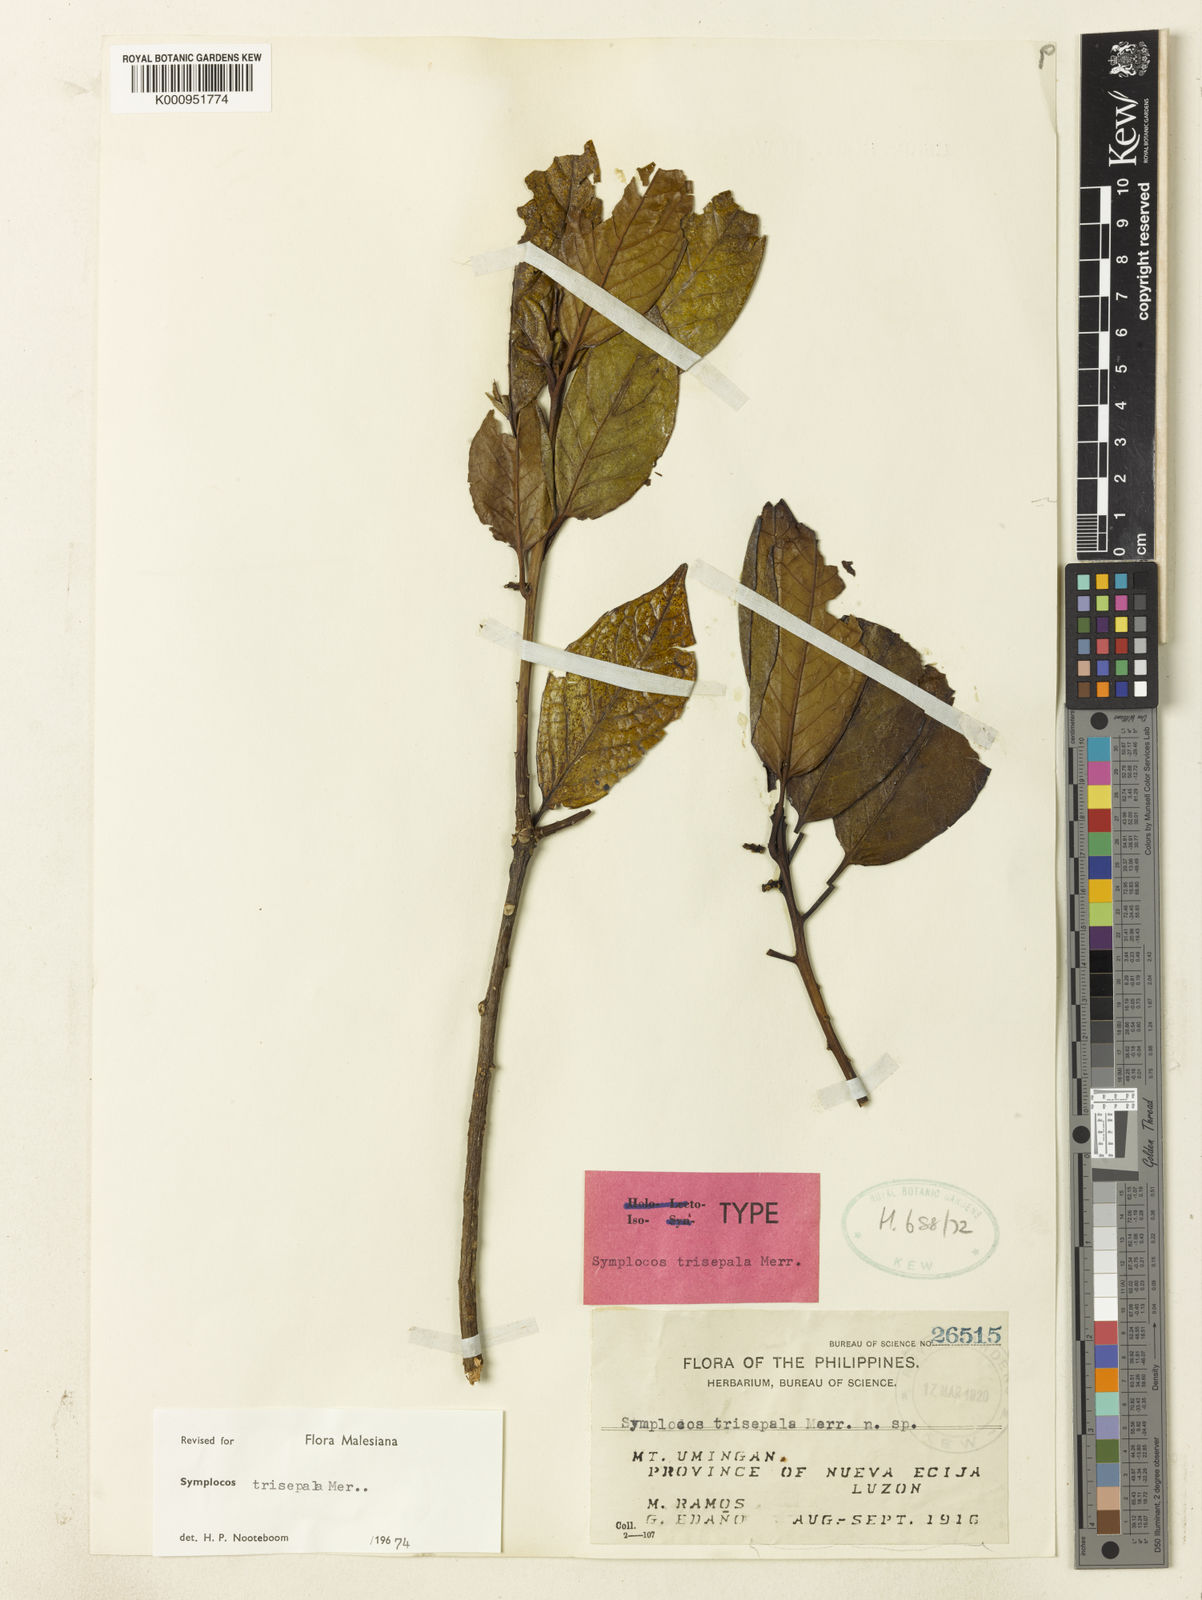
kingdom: Plantae
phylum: Tracheophyta
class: Magnoliopsida
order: Ericales
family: Symplocaceae
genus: Symplocos
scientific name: Symplocos trisepala
